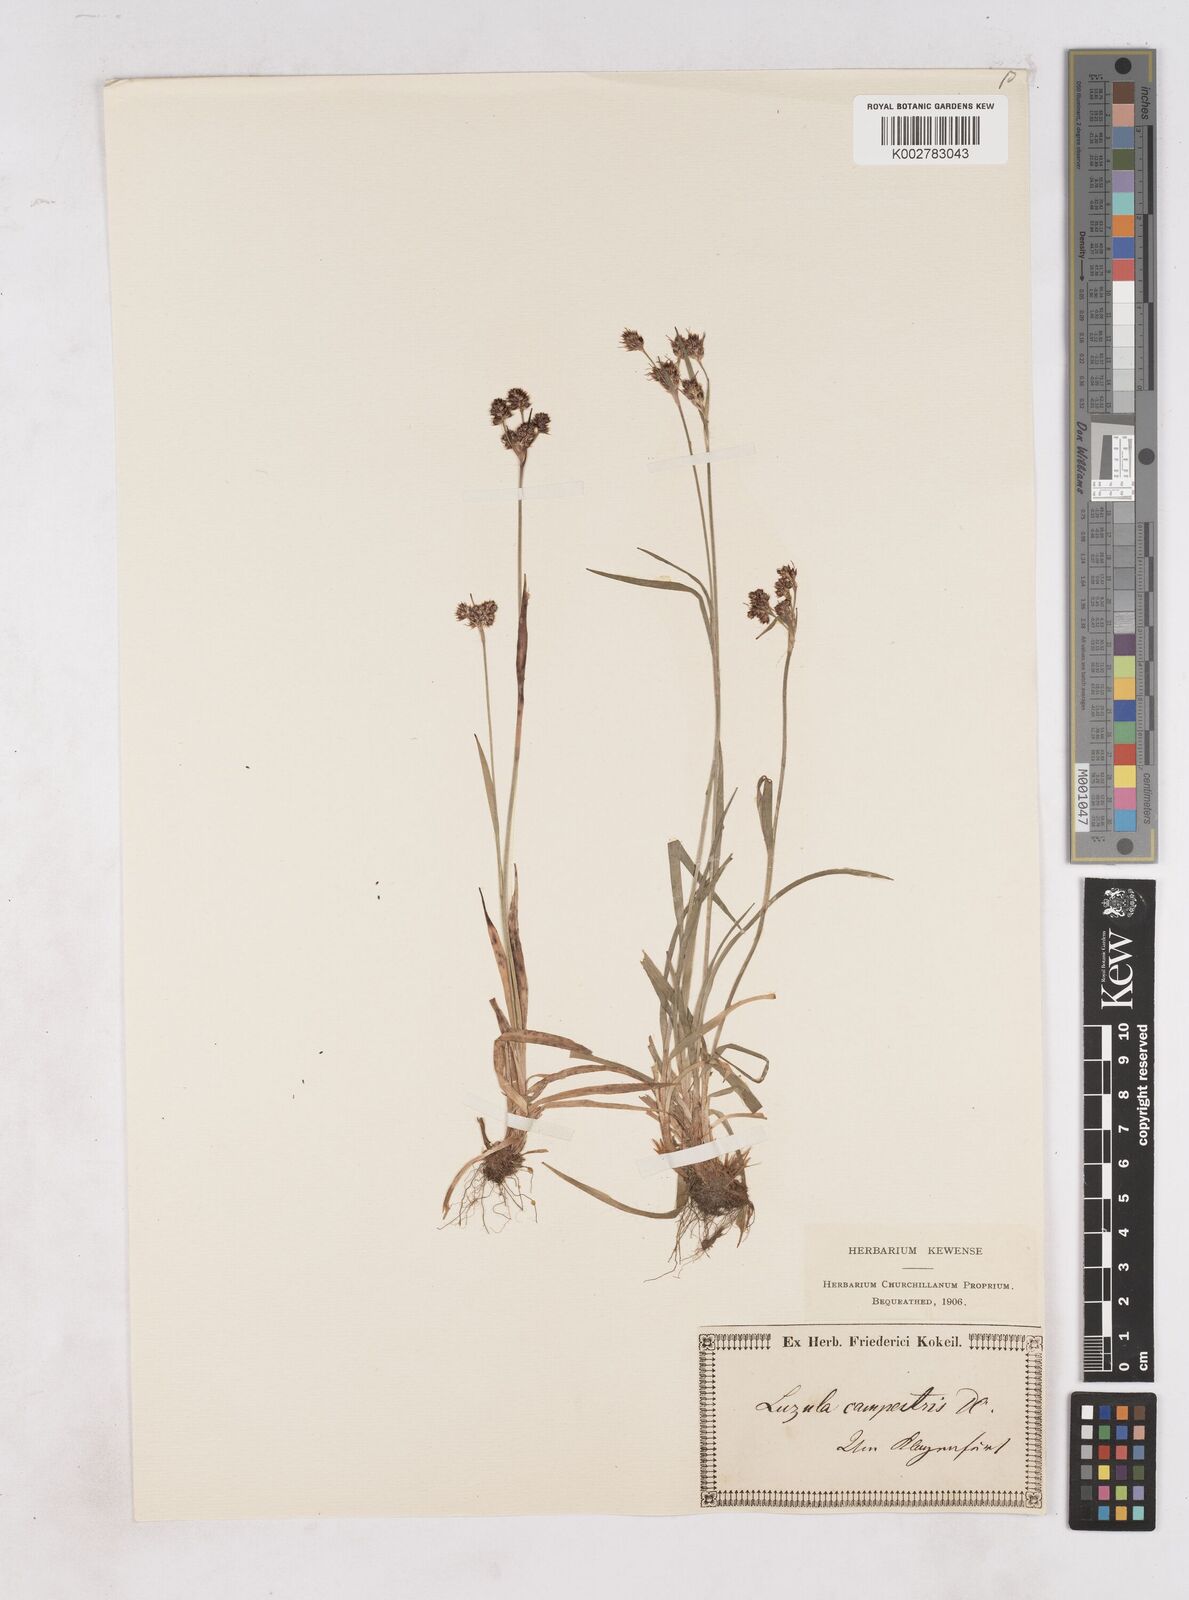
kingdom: Plantae
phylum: Tracheophyta
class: Liliopsida
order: Poales
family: Juncaceae
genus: Luzula
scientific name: Luzula campestris
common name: Field wood-rush
